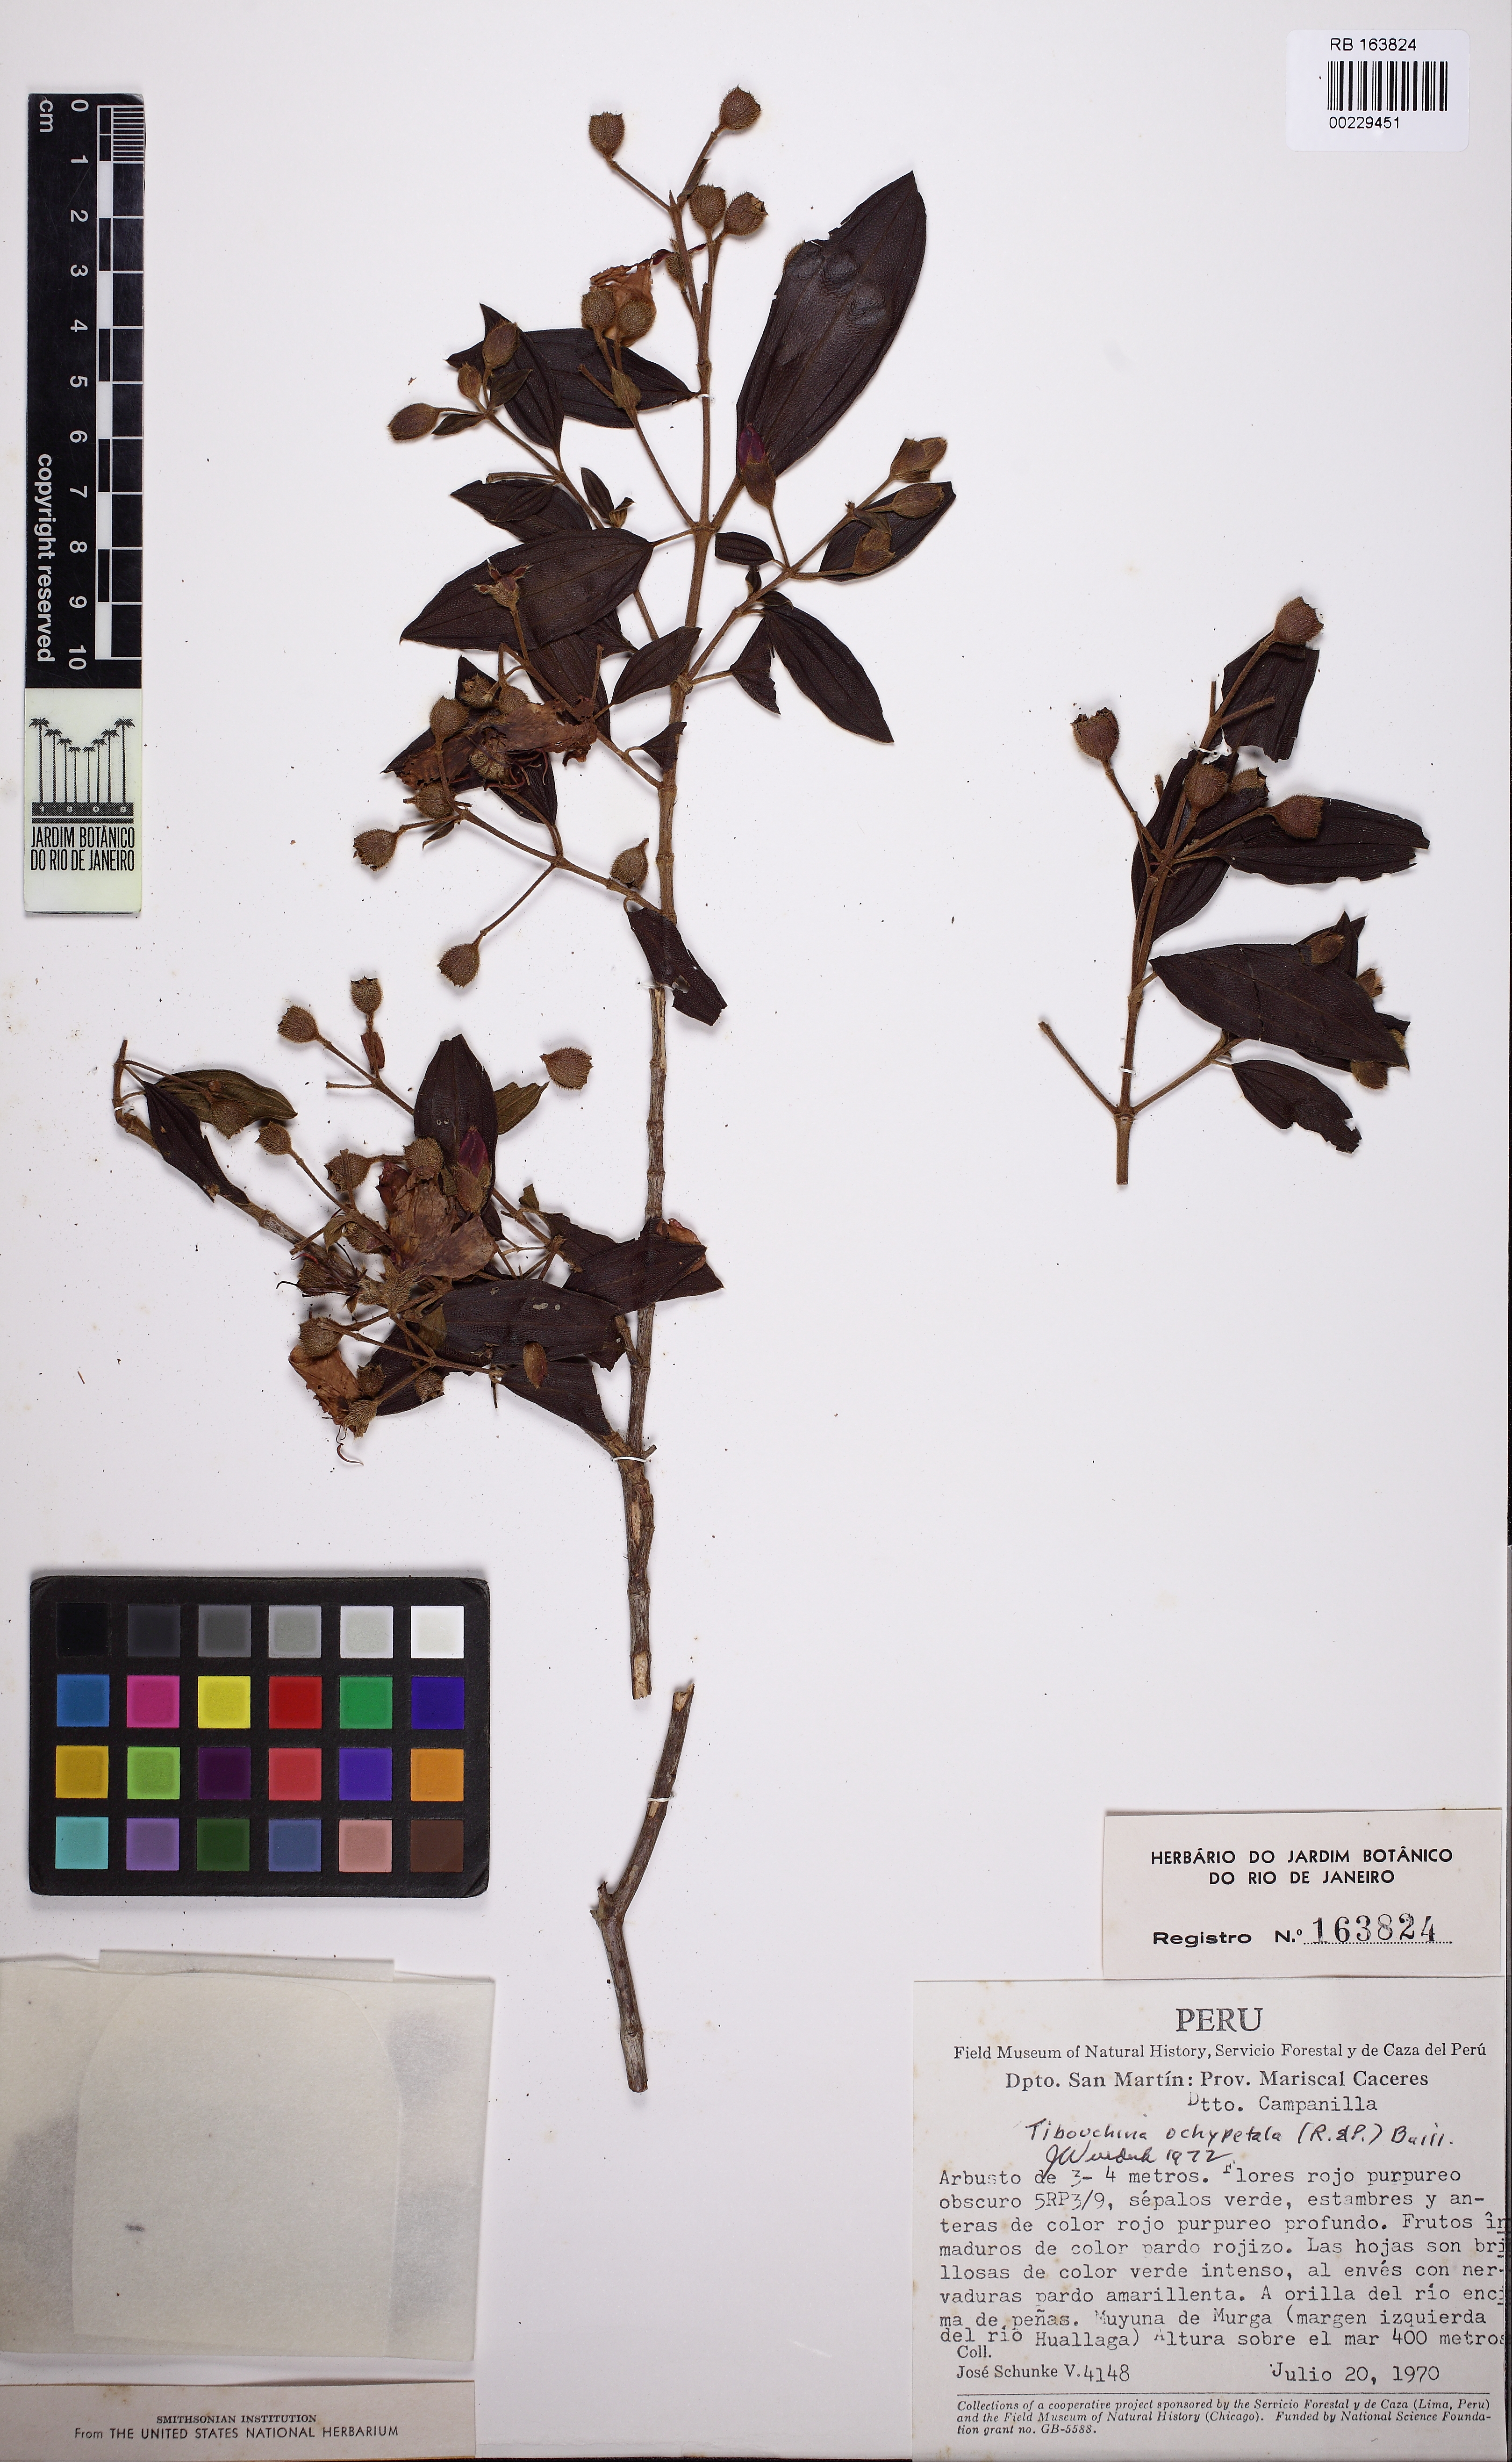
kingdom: Plantae
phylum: Tracheophyta
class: Magnoliopsida
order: Myrtales
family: Melastomataceae
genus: Pleroma
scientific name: Pleroma pallidum
